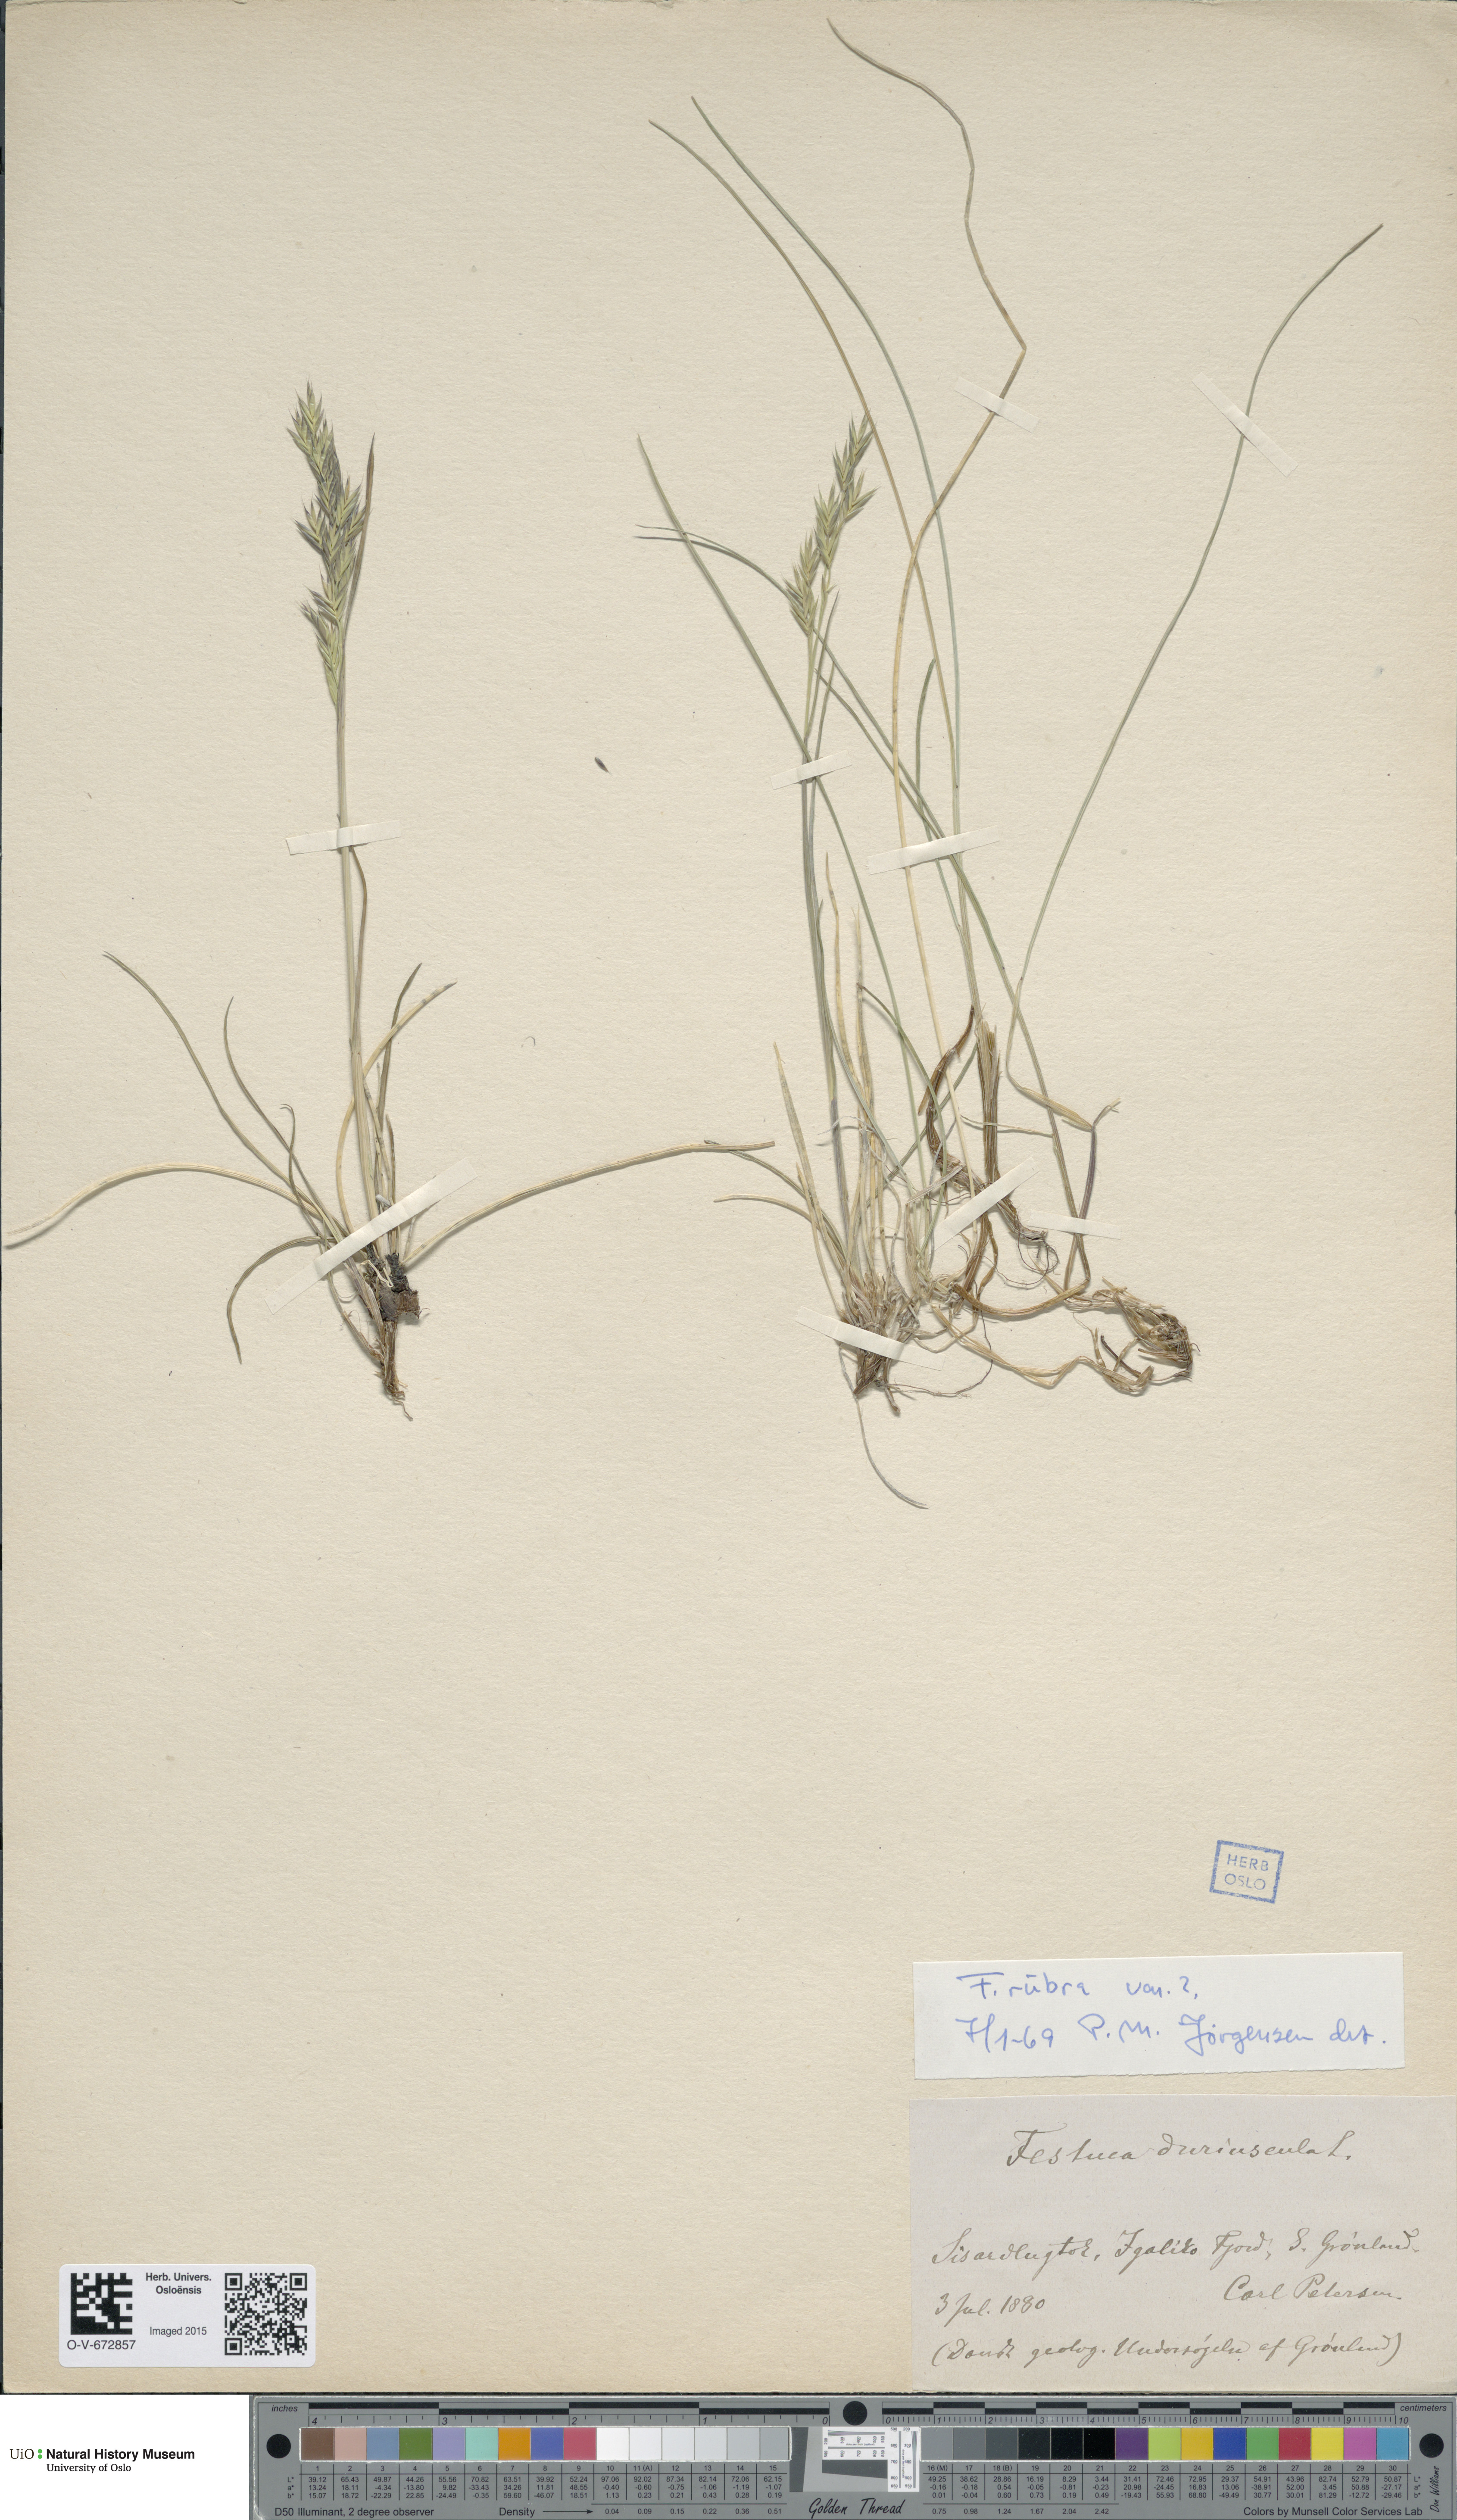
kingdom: Plantae
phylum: Tracheophyta
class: Liliopsida
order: Poales
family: Poaceae
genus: Festuca
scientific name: Festuca rubra
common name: Red fescue
